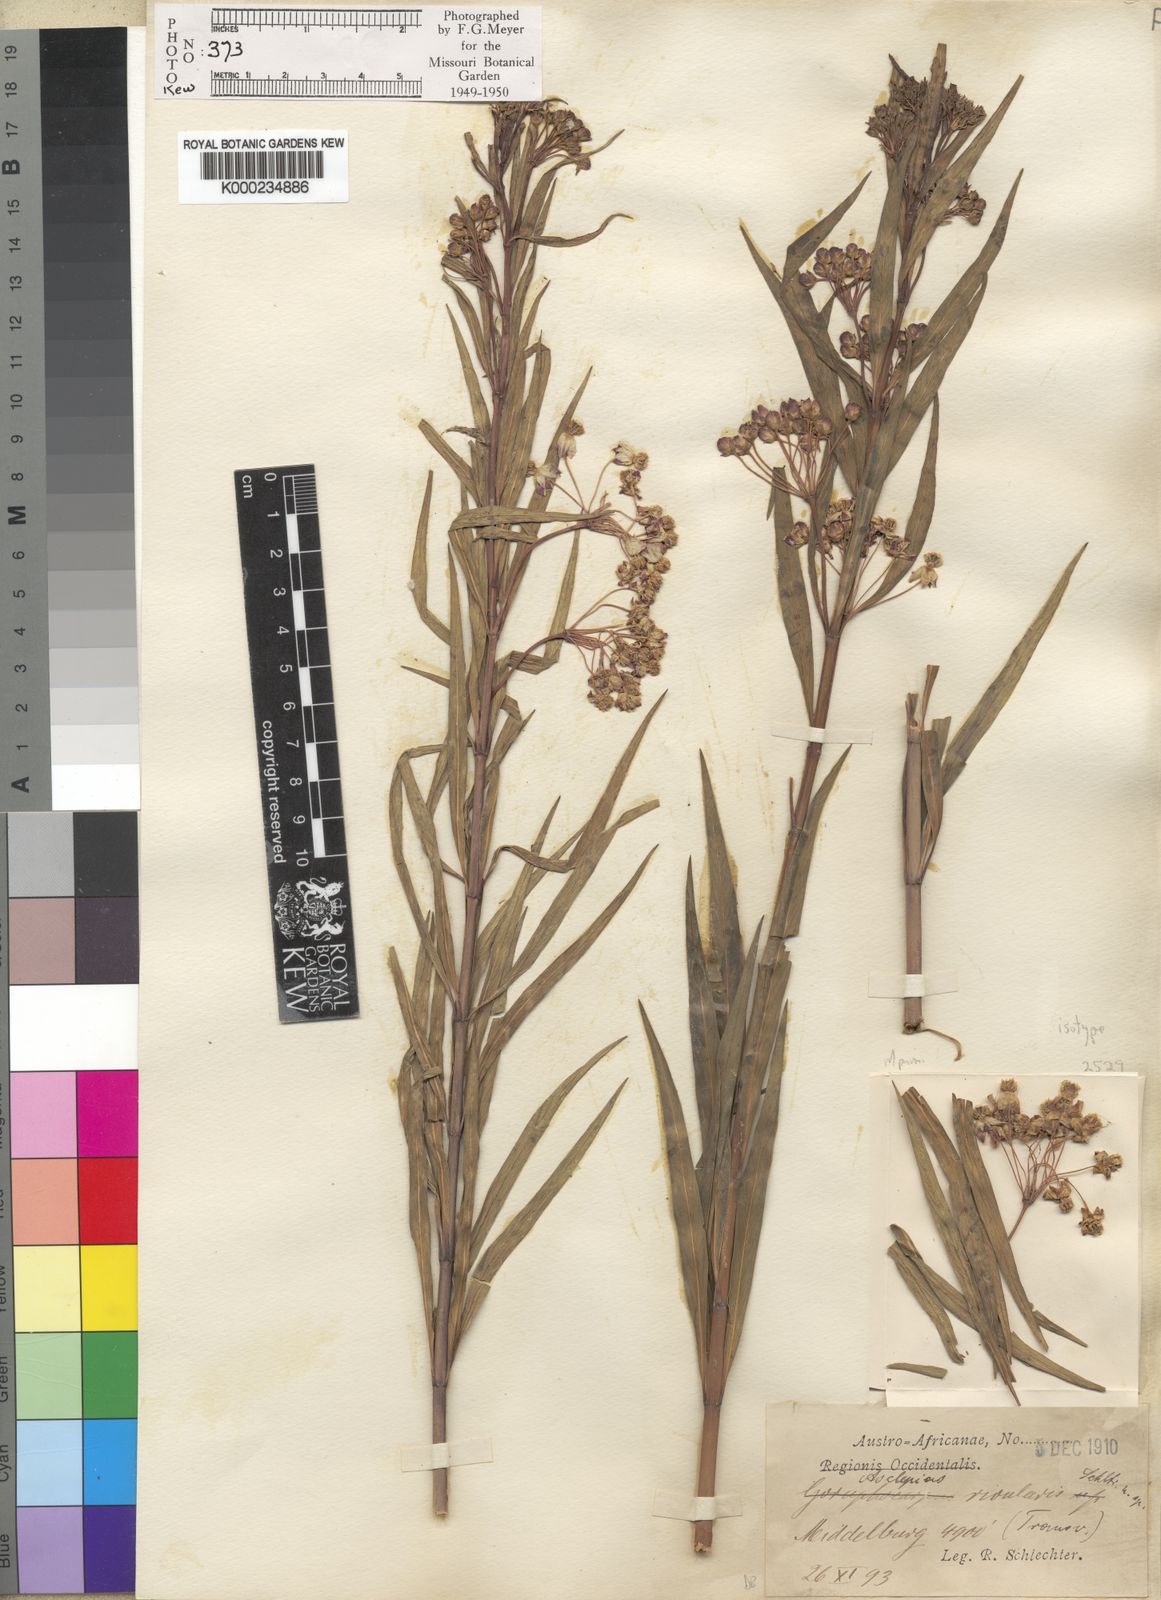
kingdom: Plantae
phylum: Tracheophyta
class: Magnoliopsida
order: Gentianales
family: Apocynaceae
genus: Gomphocarpus
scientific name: Gomphocarpus rivularis
